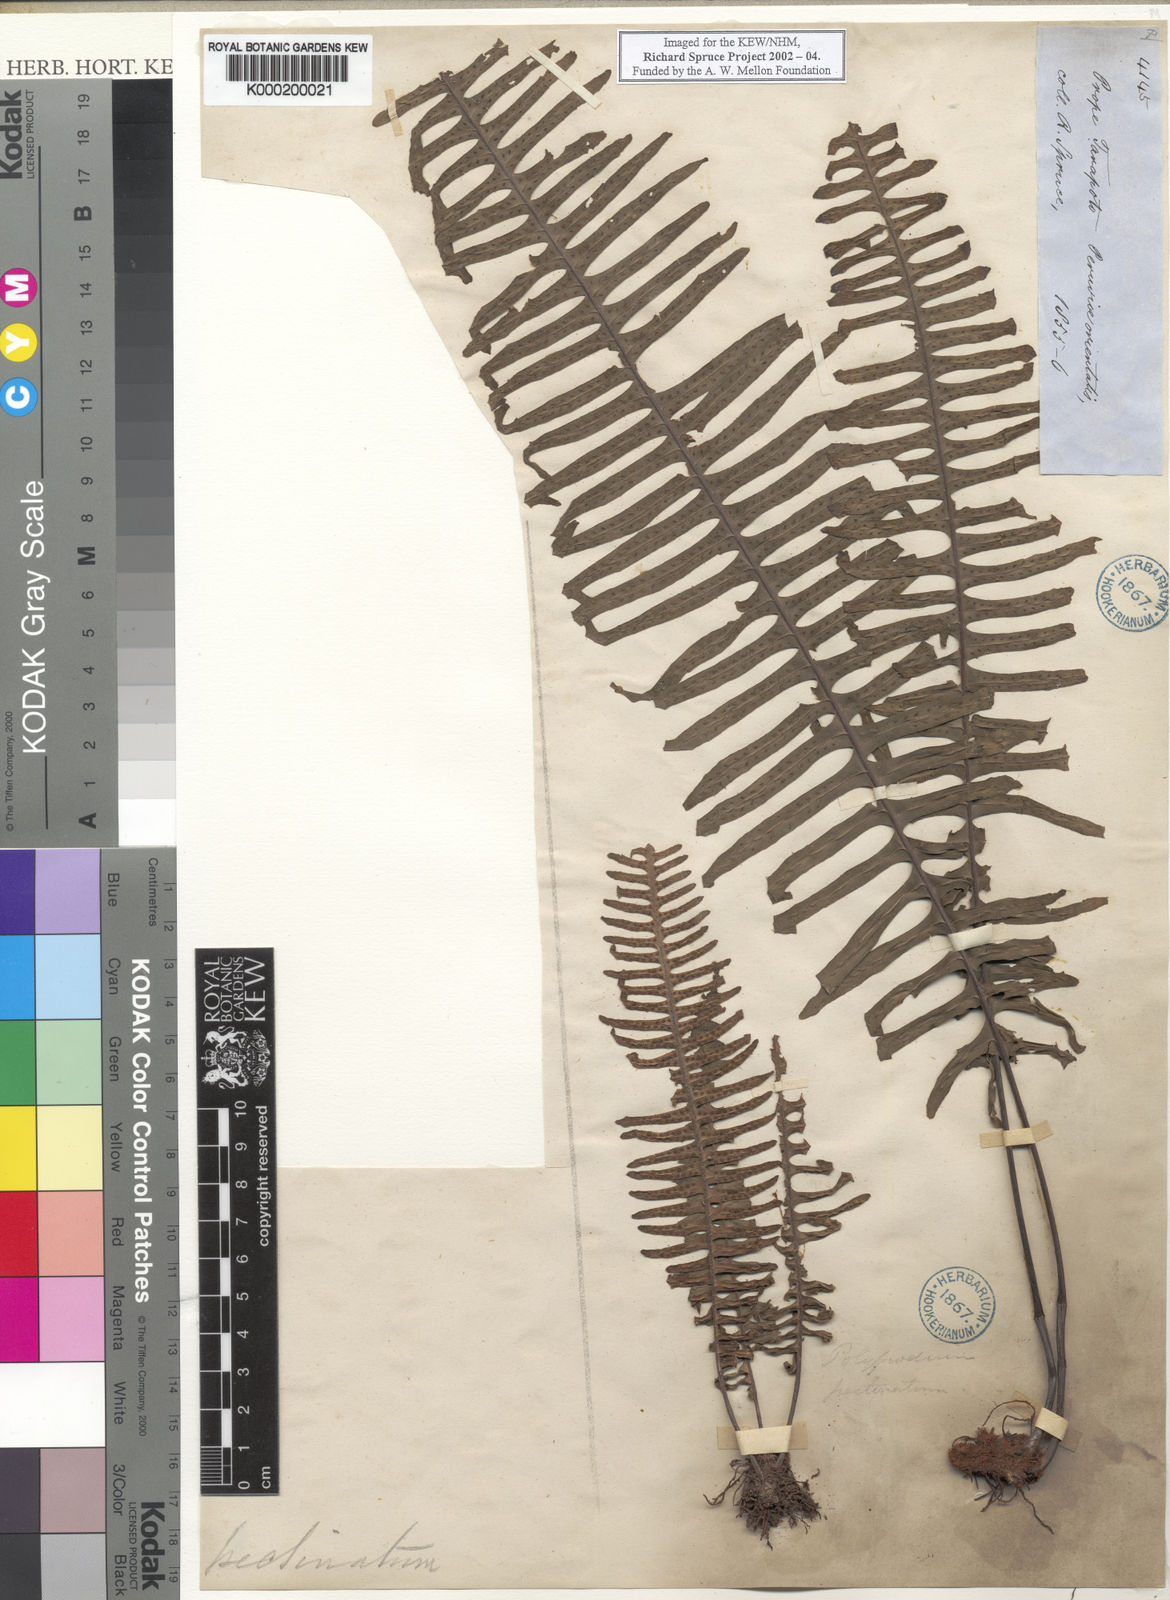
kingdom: Plantae
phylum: Tracheophyta
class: Polypodiopsida
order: Polypodiales
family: Polypodiaceae
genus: Pecluma
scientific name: Pecluma pectinata
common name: Msasa fern
